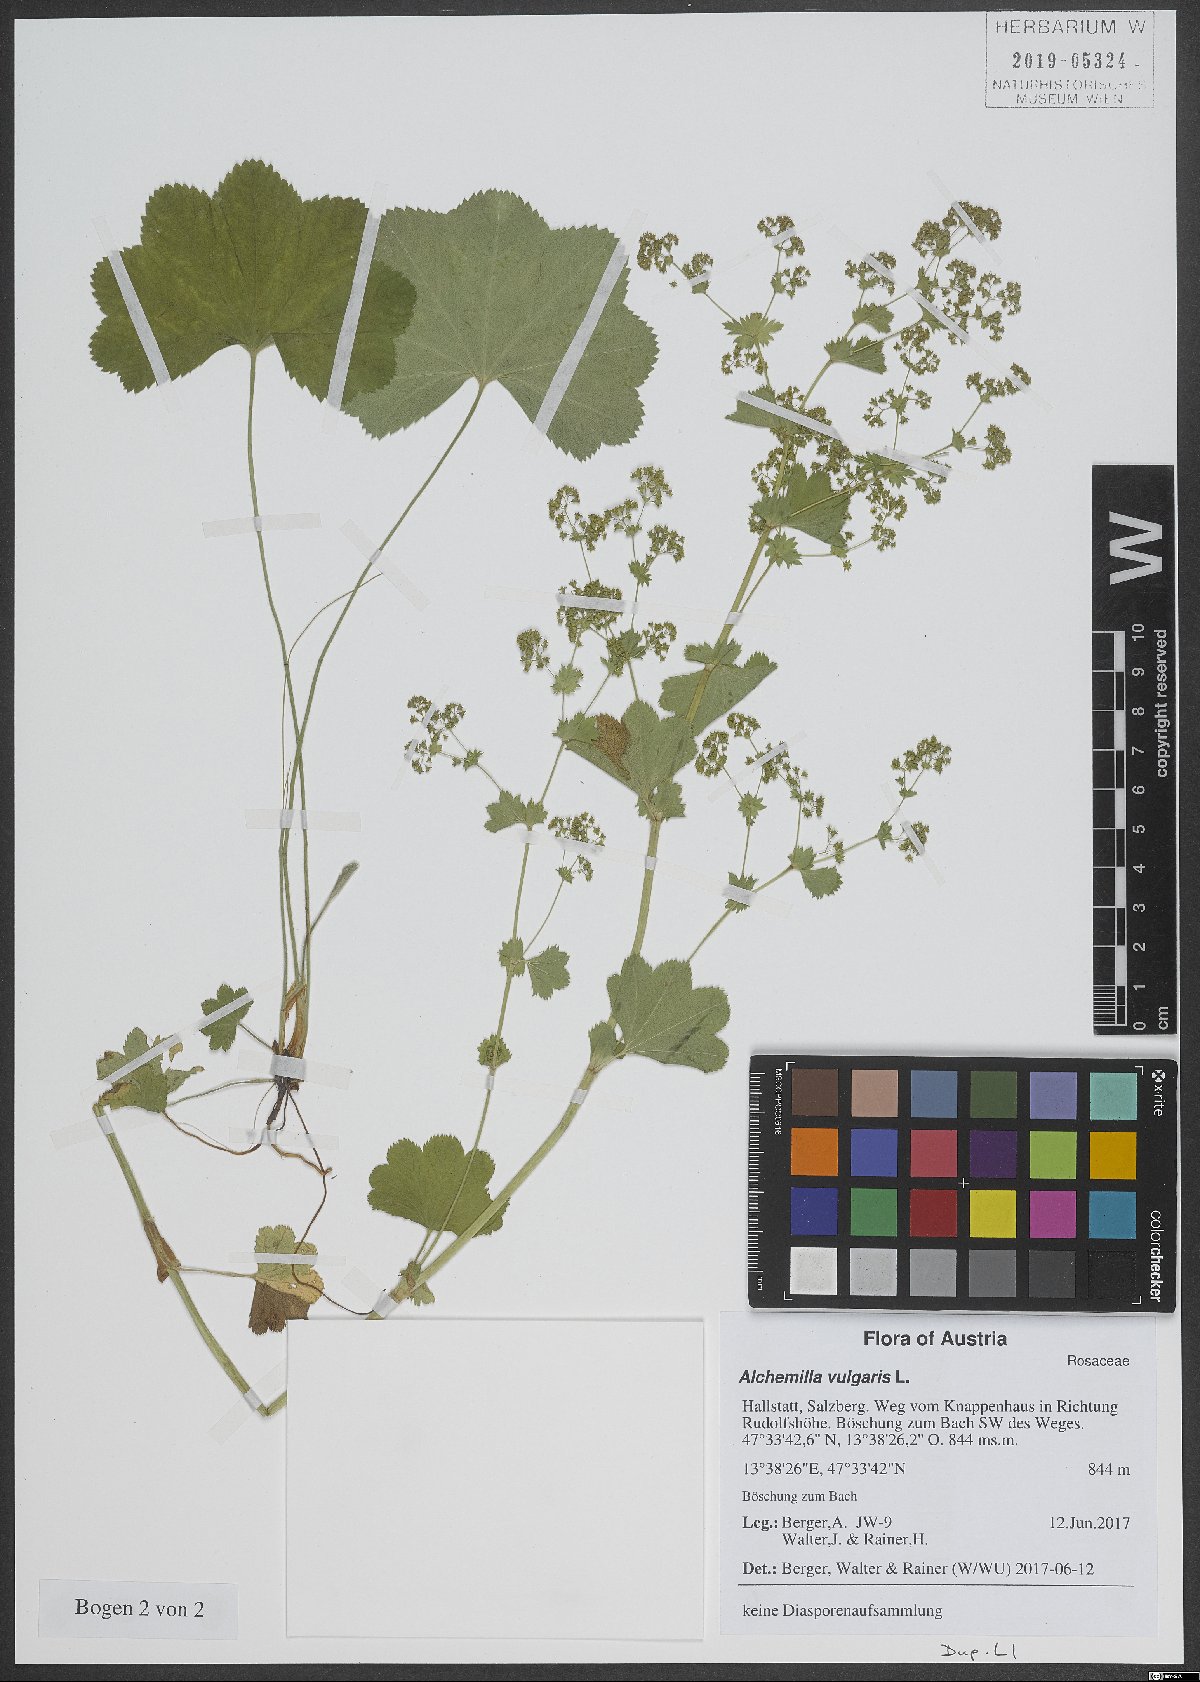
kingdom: Plantae
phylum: Tracheophyta
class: Magnoliopsida
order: Rosales
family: Rosaceae
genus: Alchemilla
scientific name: Alchemilla vulgaris
